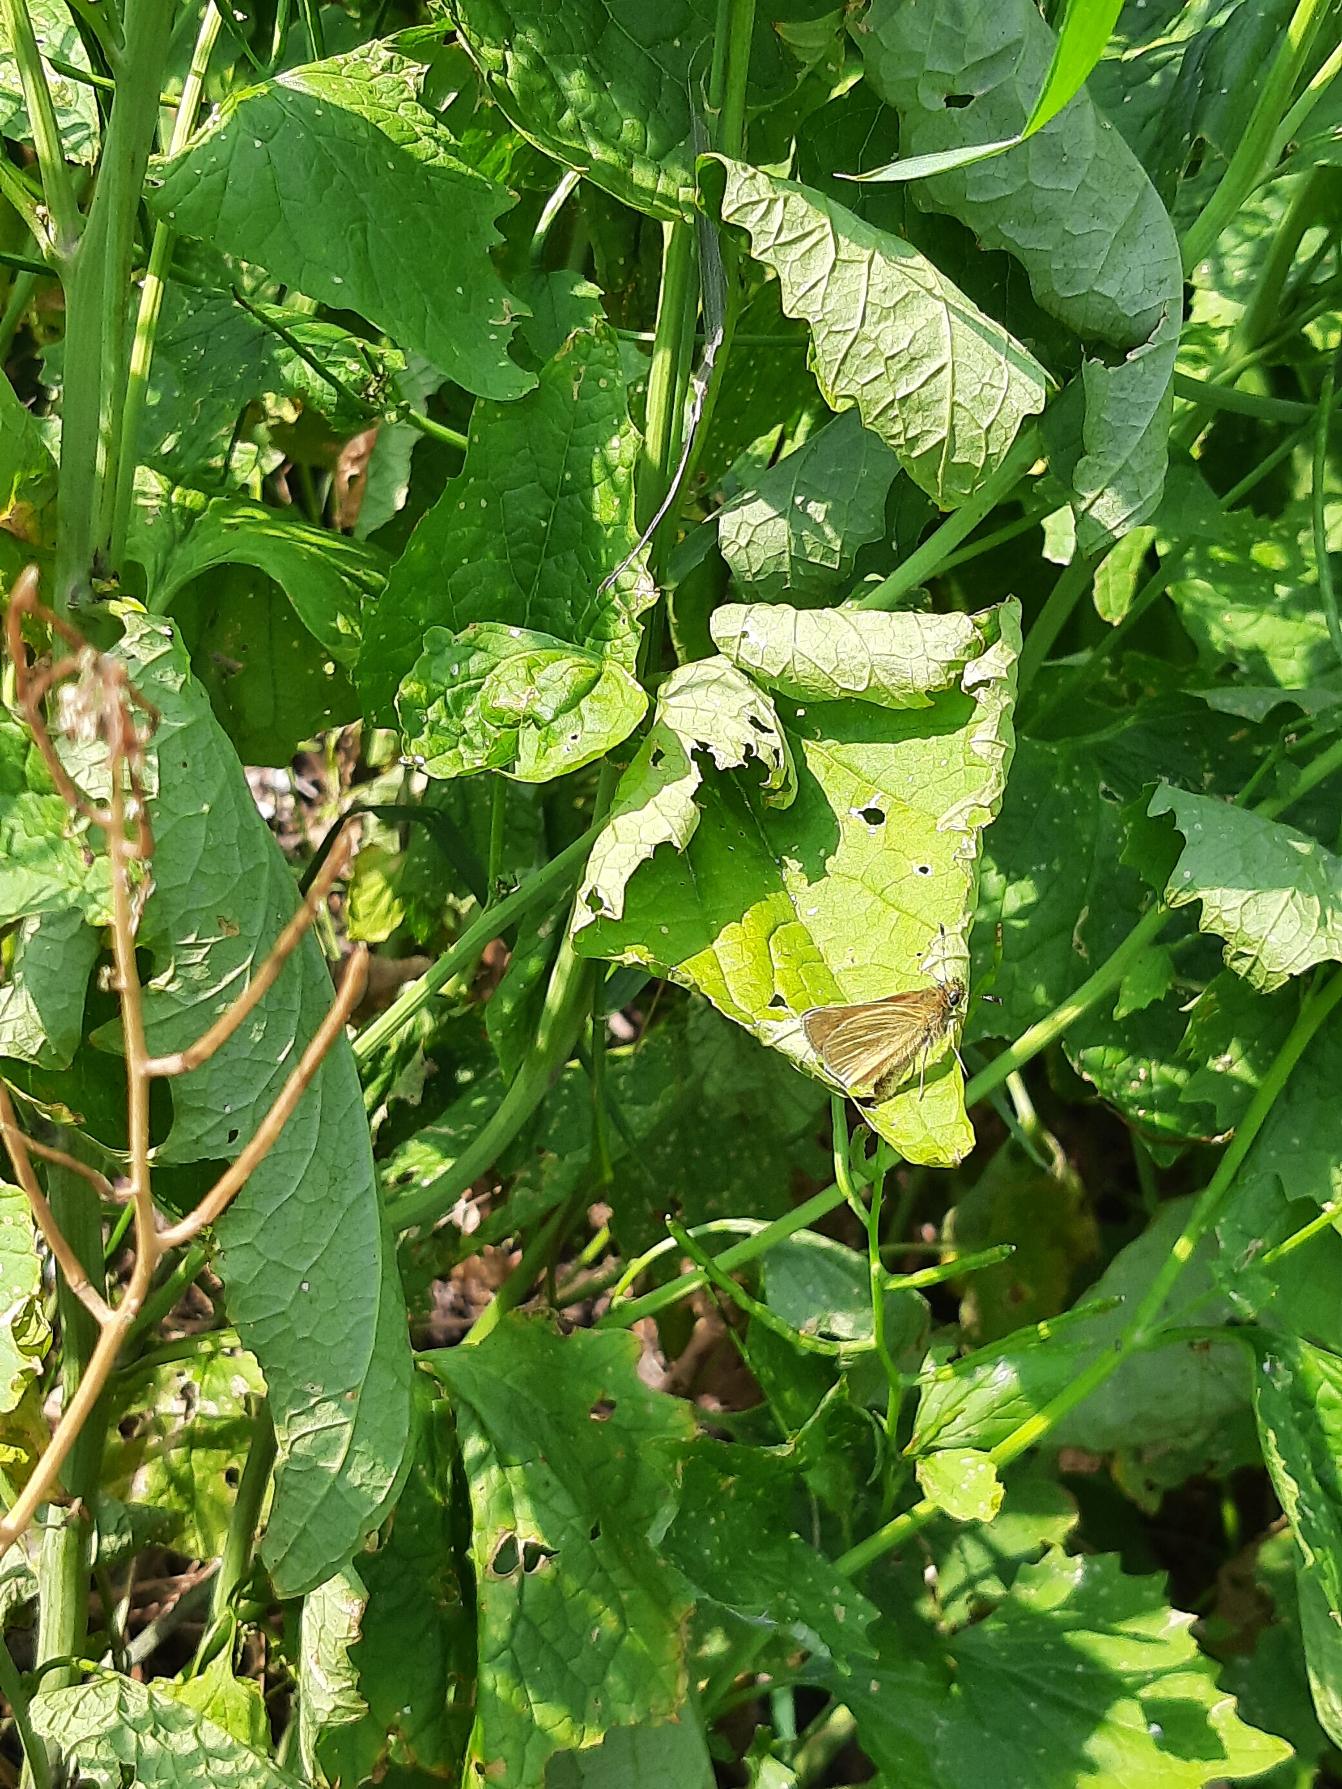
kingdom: Animalia
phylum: Arthropoda
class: Insecta
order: Lepidoptera
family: Hesperiidae
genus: Ochlodes
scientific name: Ochlodes venata
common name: Stor bredpande
